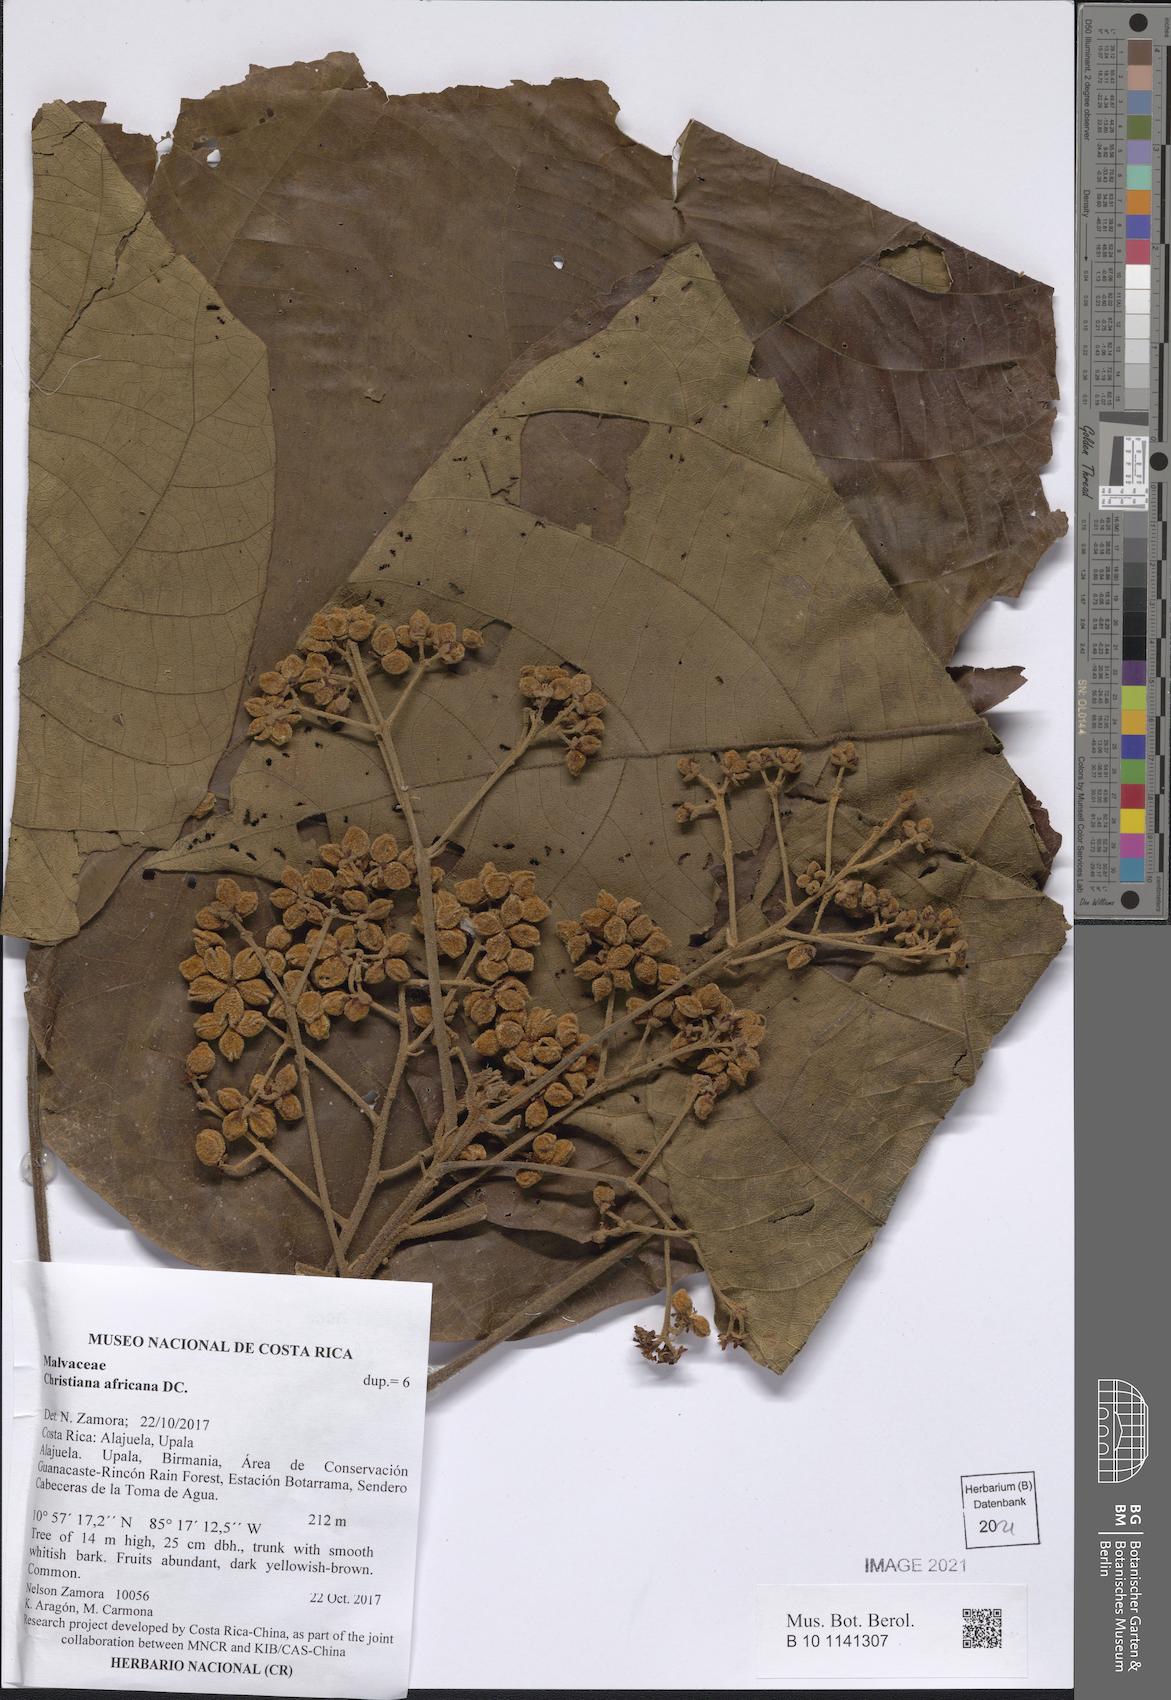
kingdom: Plantae
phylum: Tracheophyta
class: Magnoliopsida
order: Malvales
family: Malvaceae
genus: Christiana
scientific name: Christiana africana
